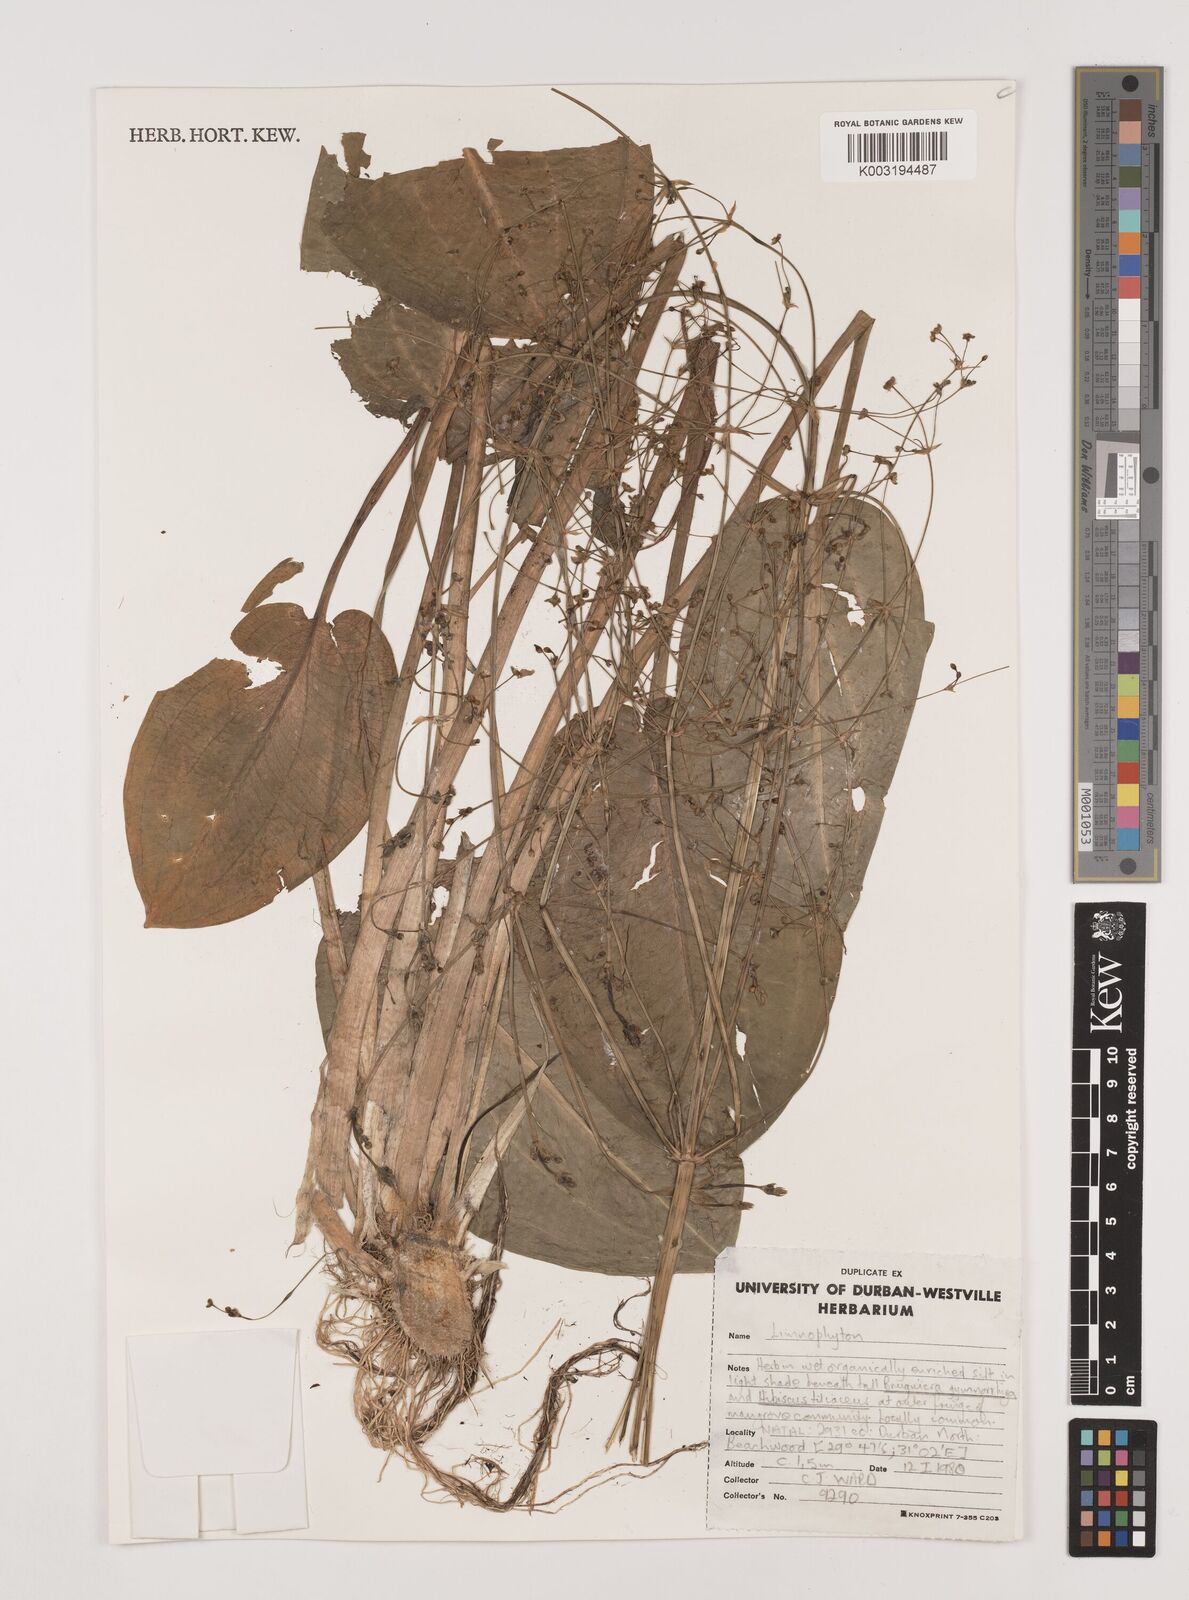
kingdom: Plantae
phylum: Tracheophyta
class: Liliopsida
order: Alismatales
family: Alismataceae
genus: Limnophyton
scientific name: Limnophyton
